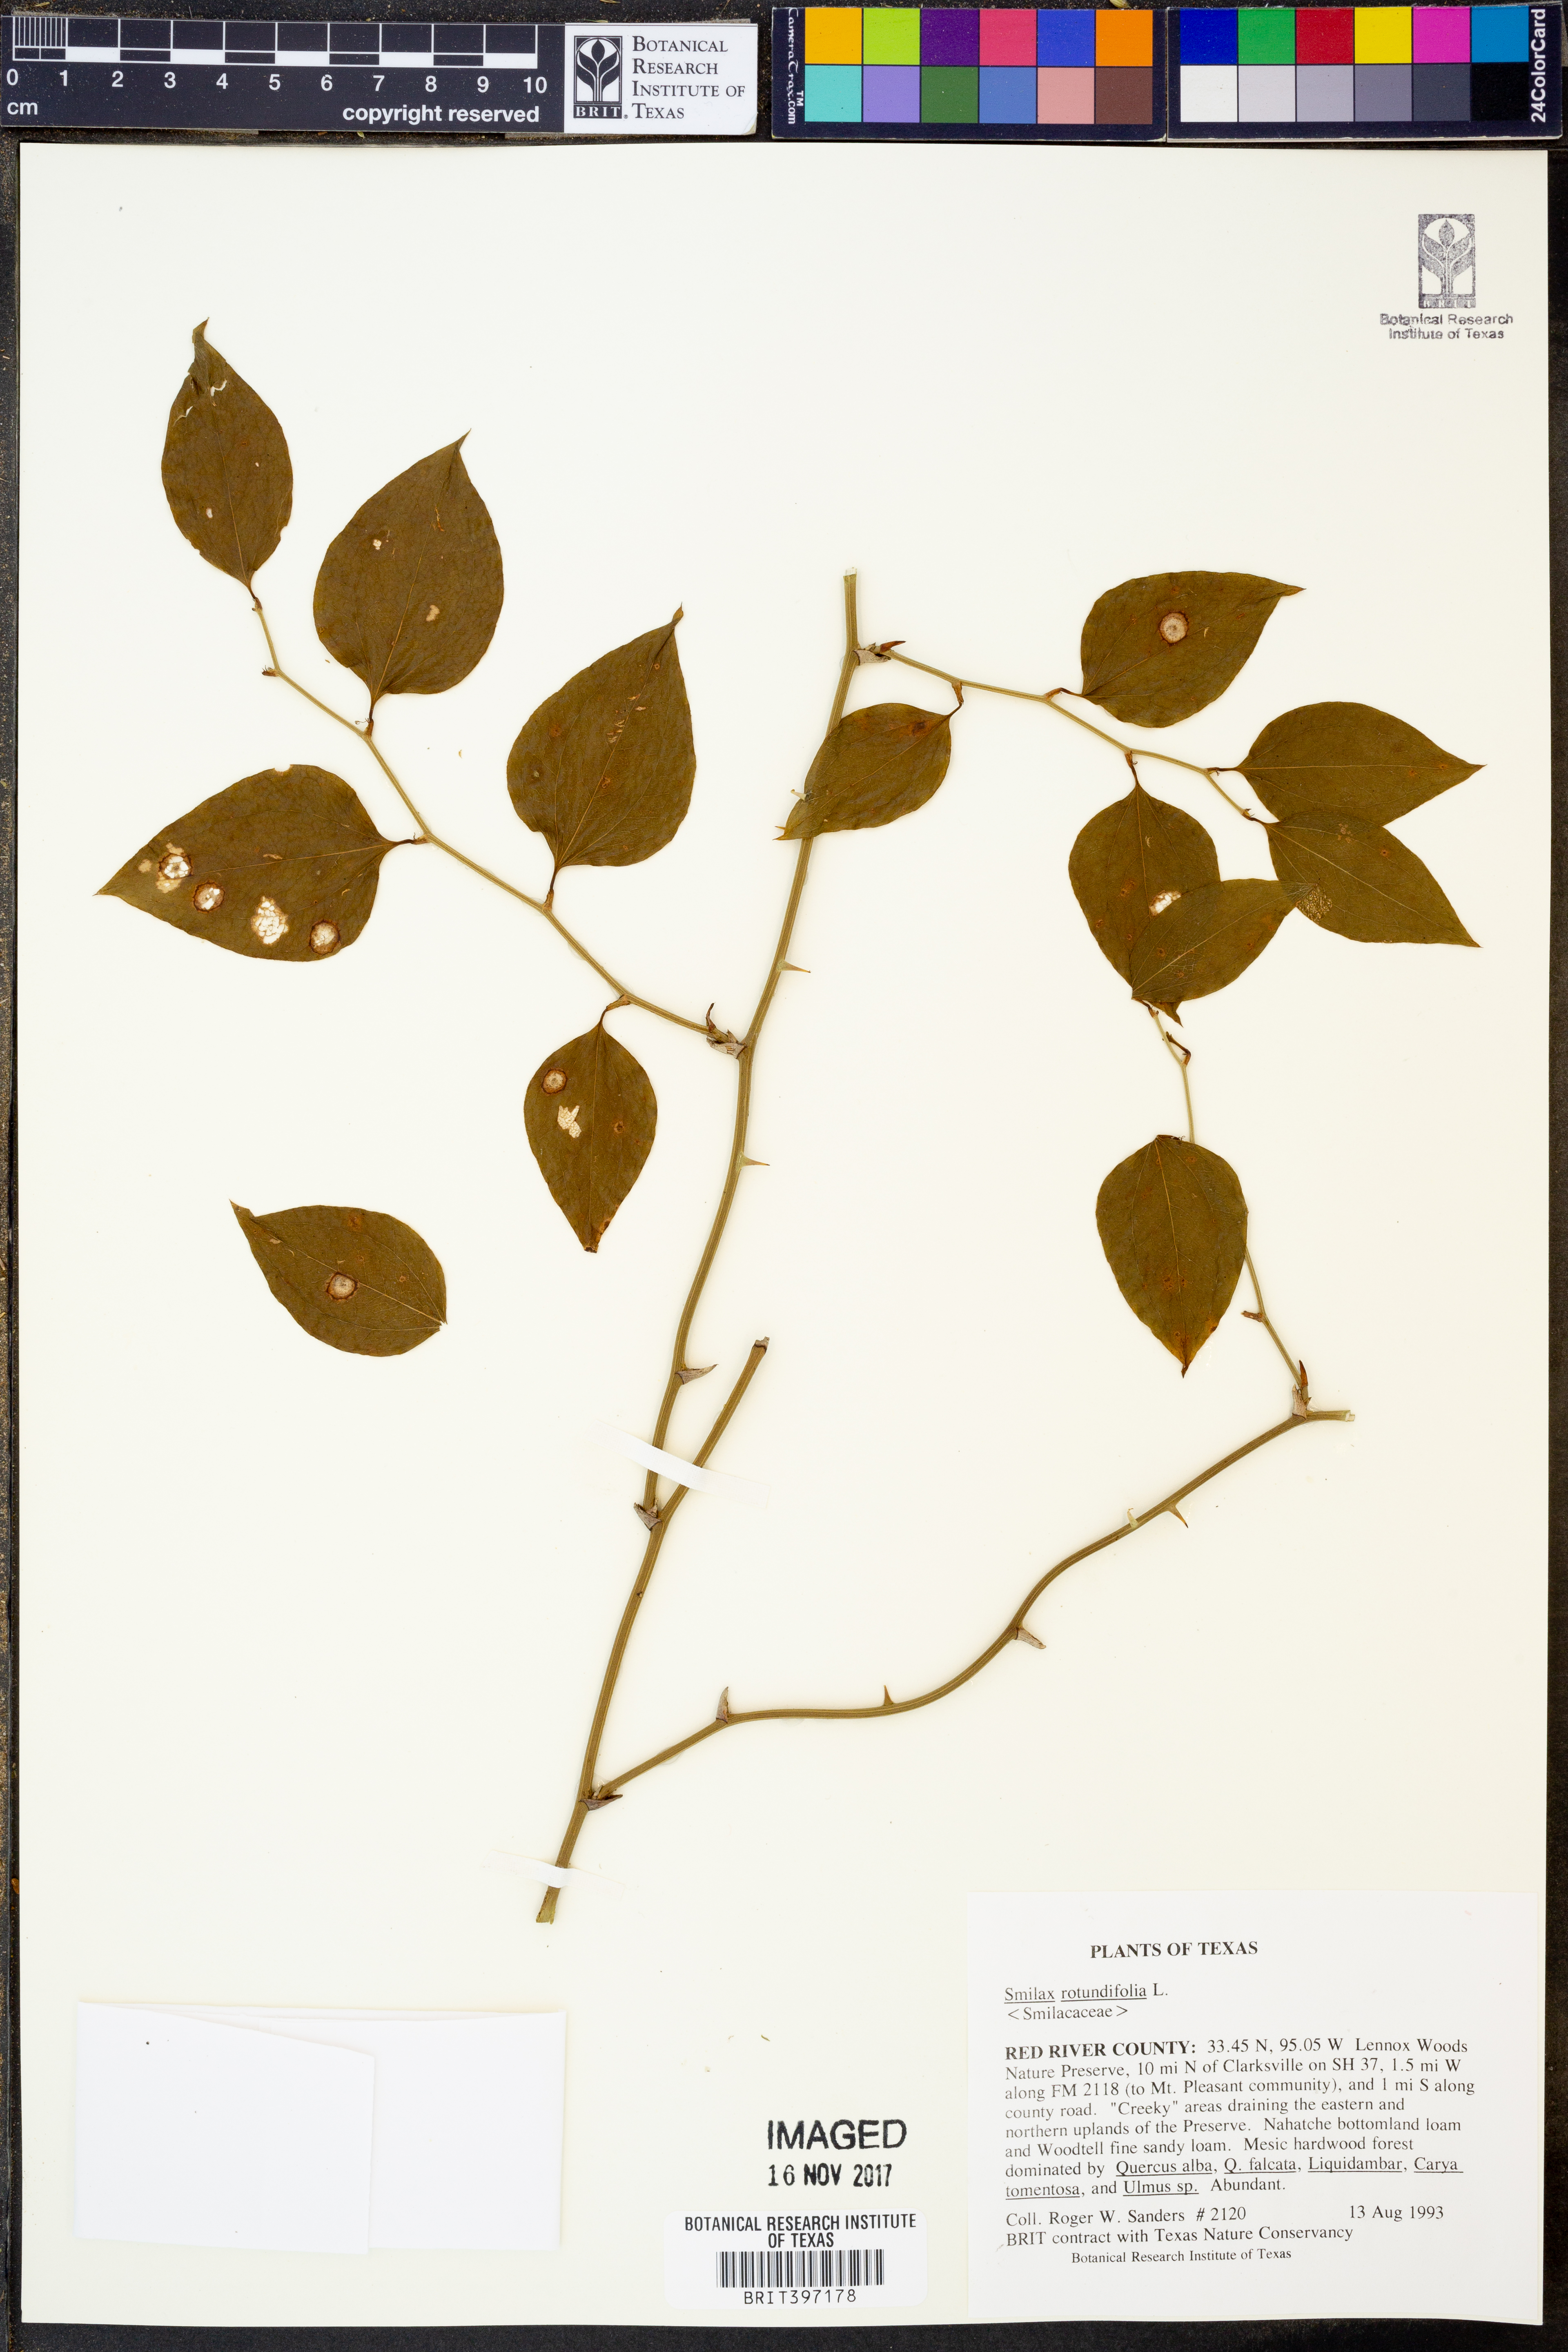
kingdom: Plantae
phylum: Tracheophyta
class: Liliopsida
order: Liliales
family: Smilacaceae
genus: Smilax
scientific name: Smilax rotundifolia
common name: Bullbriar
